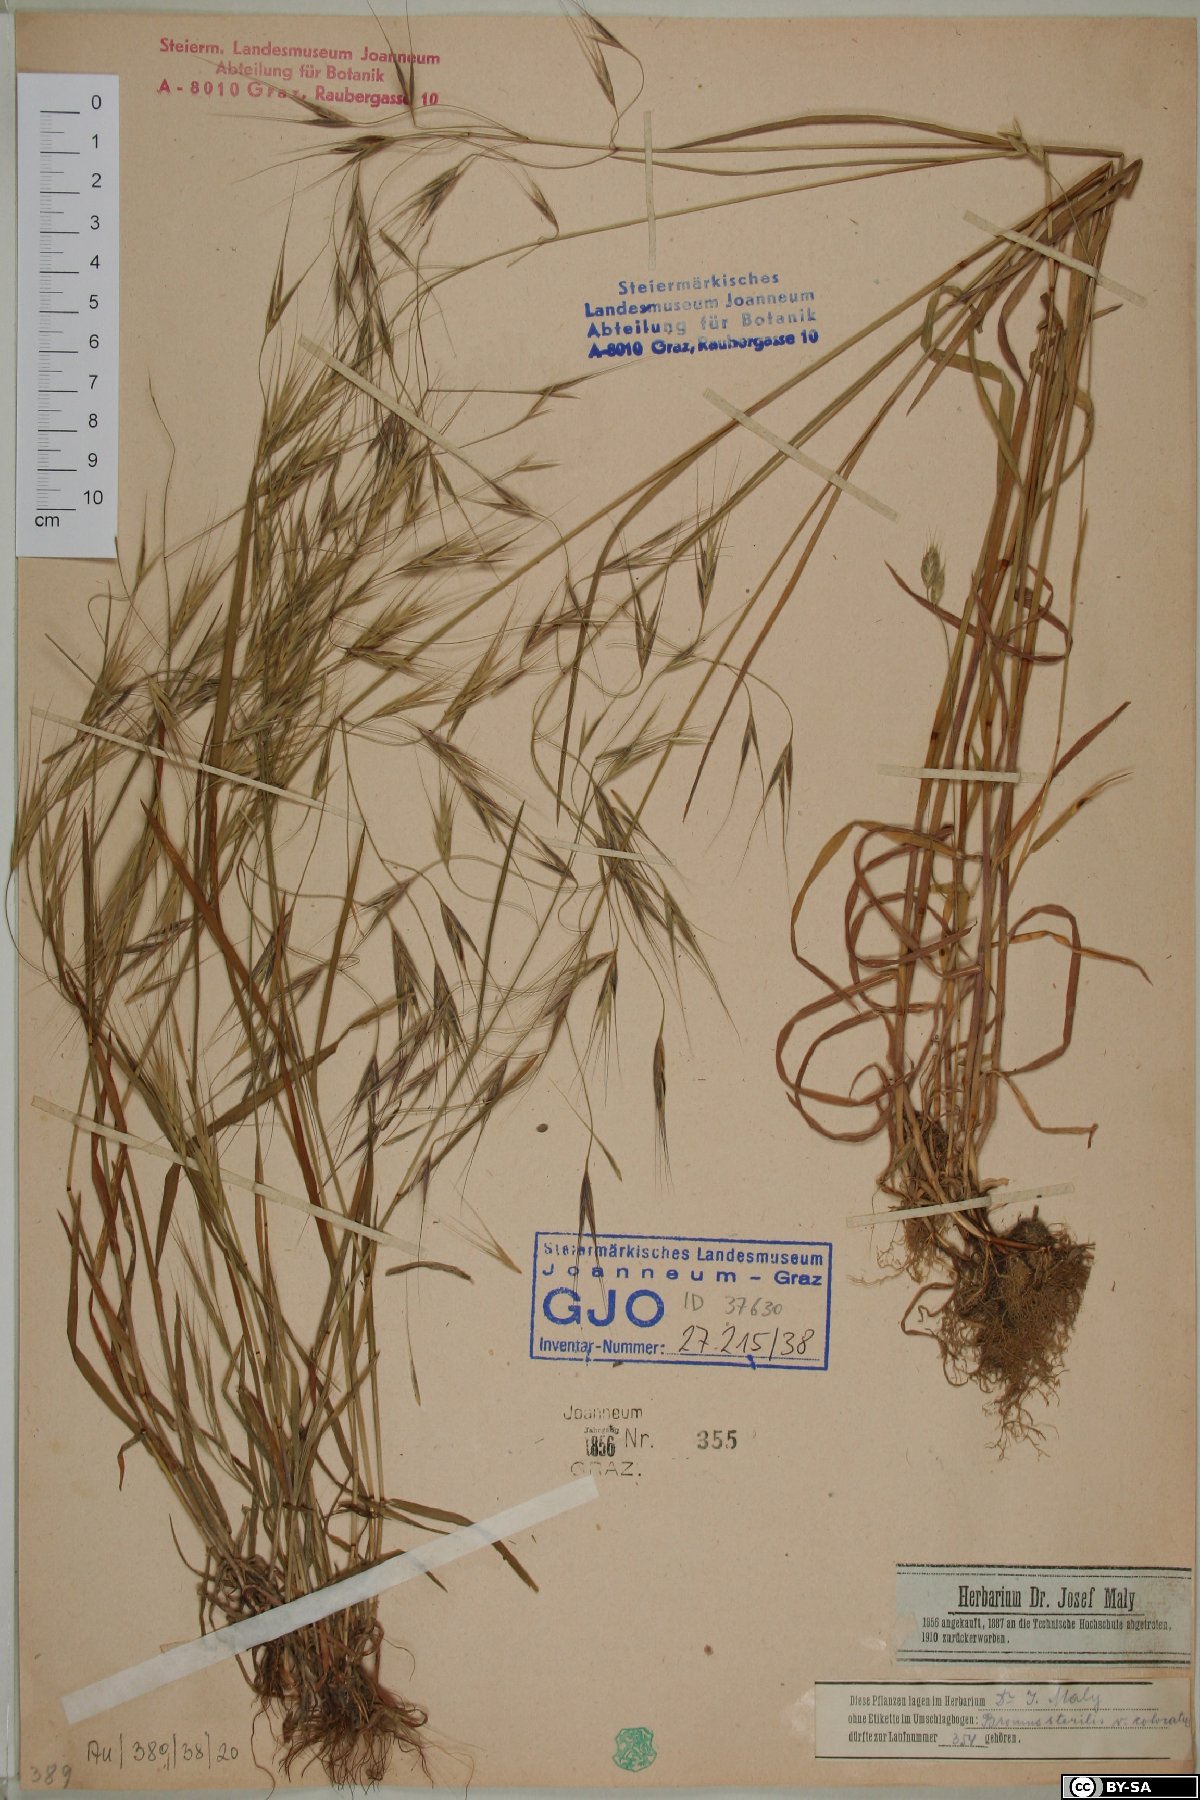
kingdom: Plantae
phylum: Tracheophyta
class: Liliopsida
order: Poales
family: Poaceae
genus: Bromus
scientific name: Bromus sterilis
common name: Poverty brome
